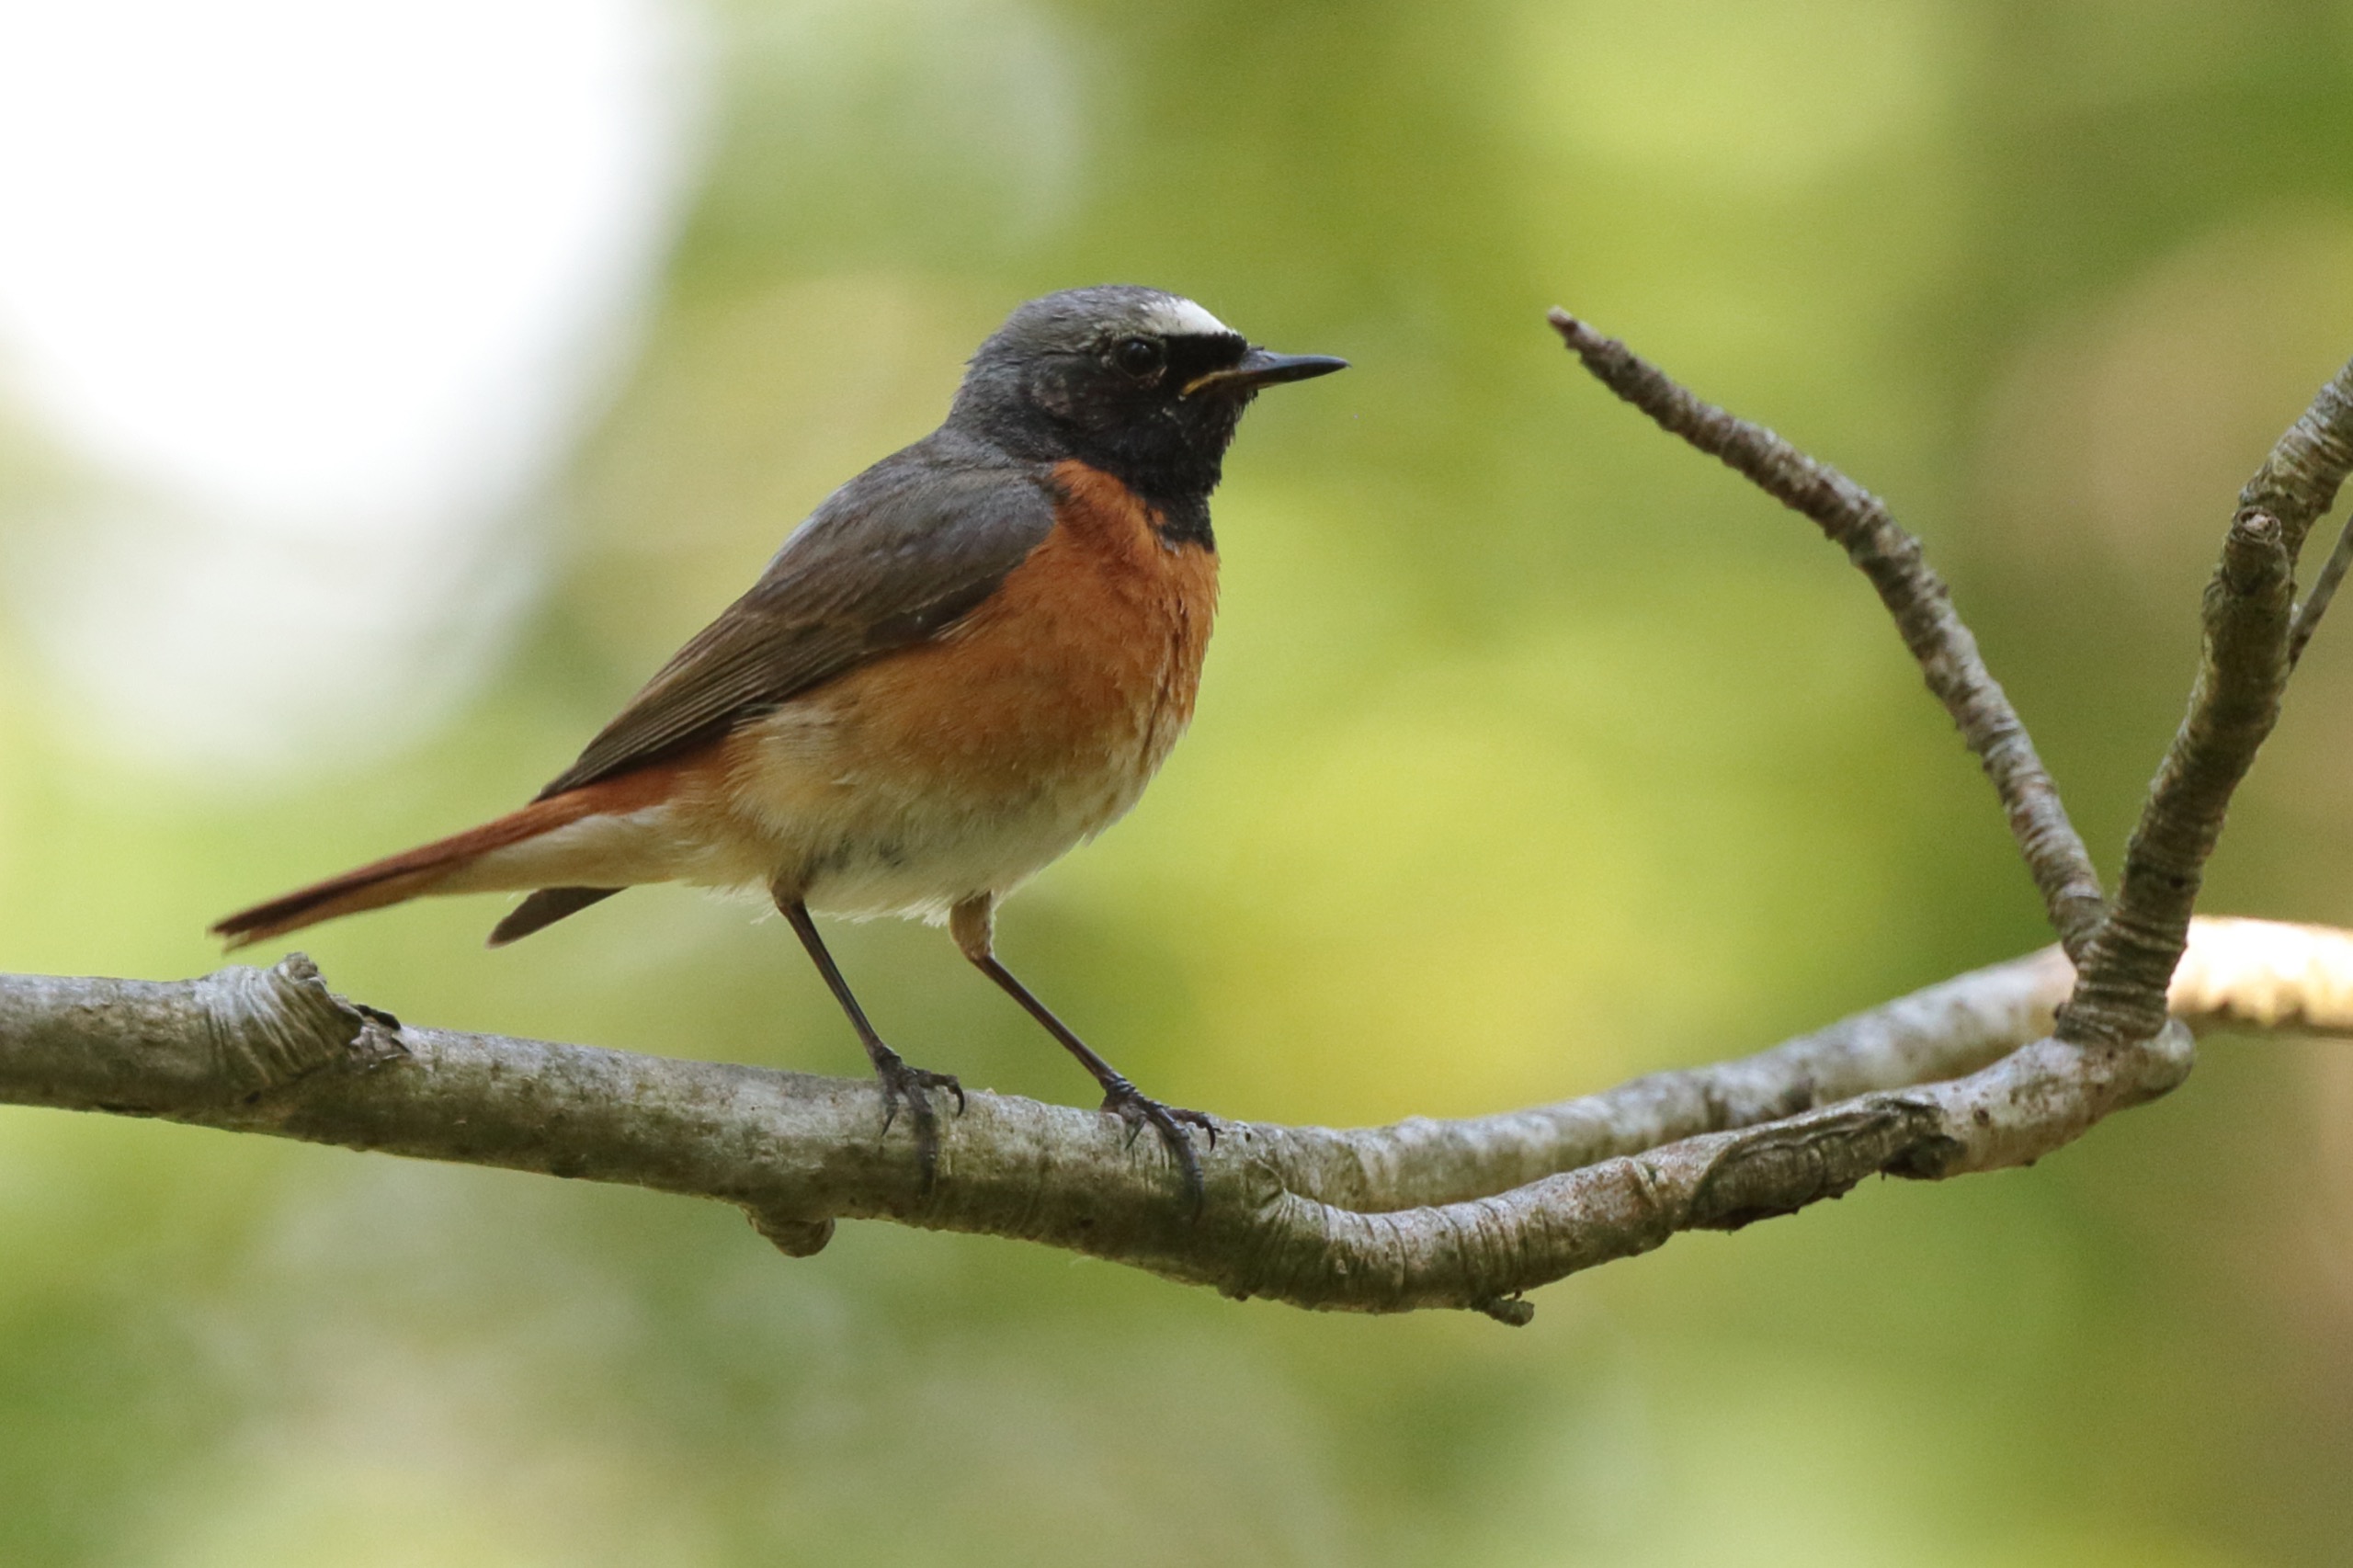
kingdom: Animalia
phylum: Chordata
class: Aves
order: Passeriformes
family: Muscicapidae
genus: Phoenicurus
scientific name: Phoenicurus phoenicurus
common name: Rødstjert
